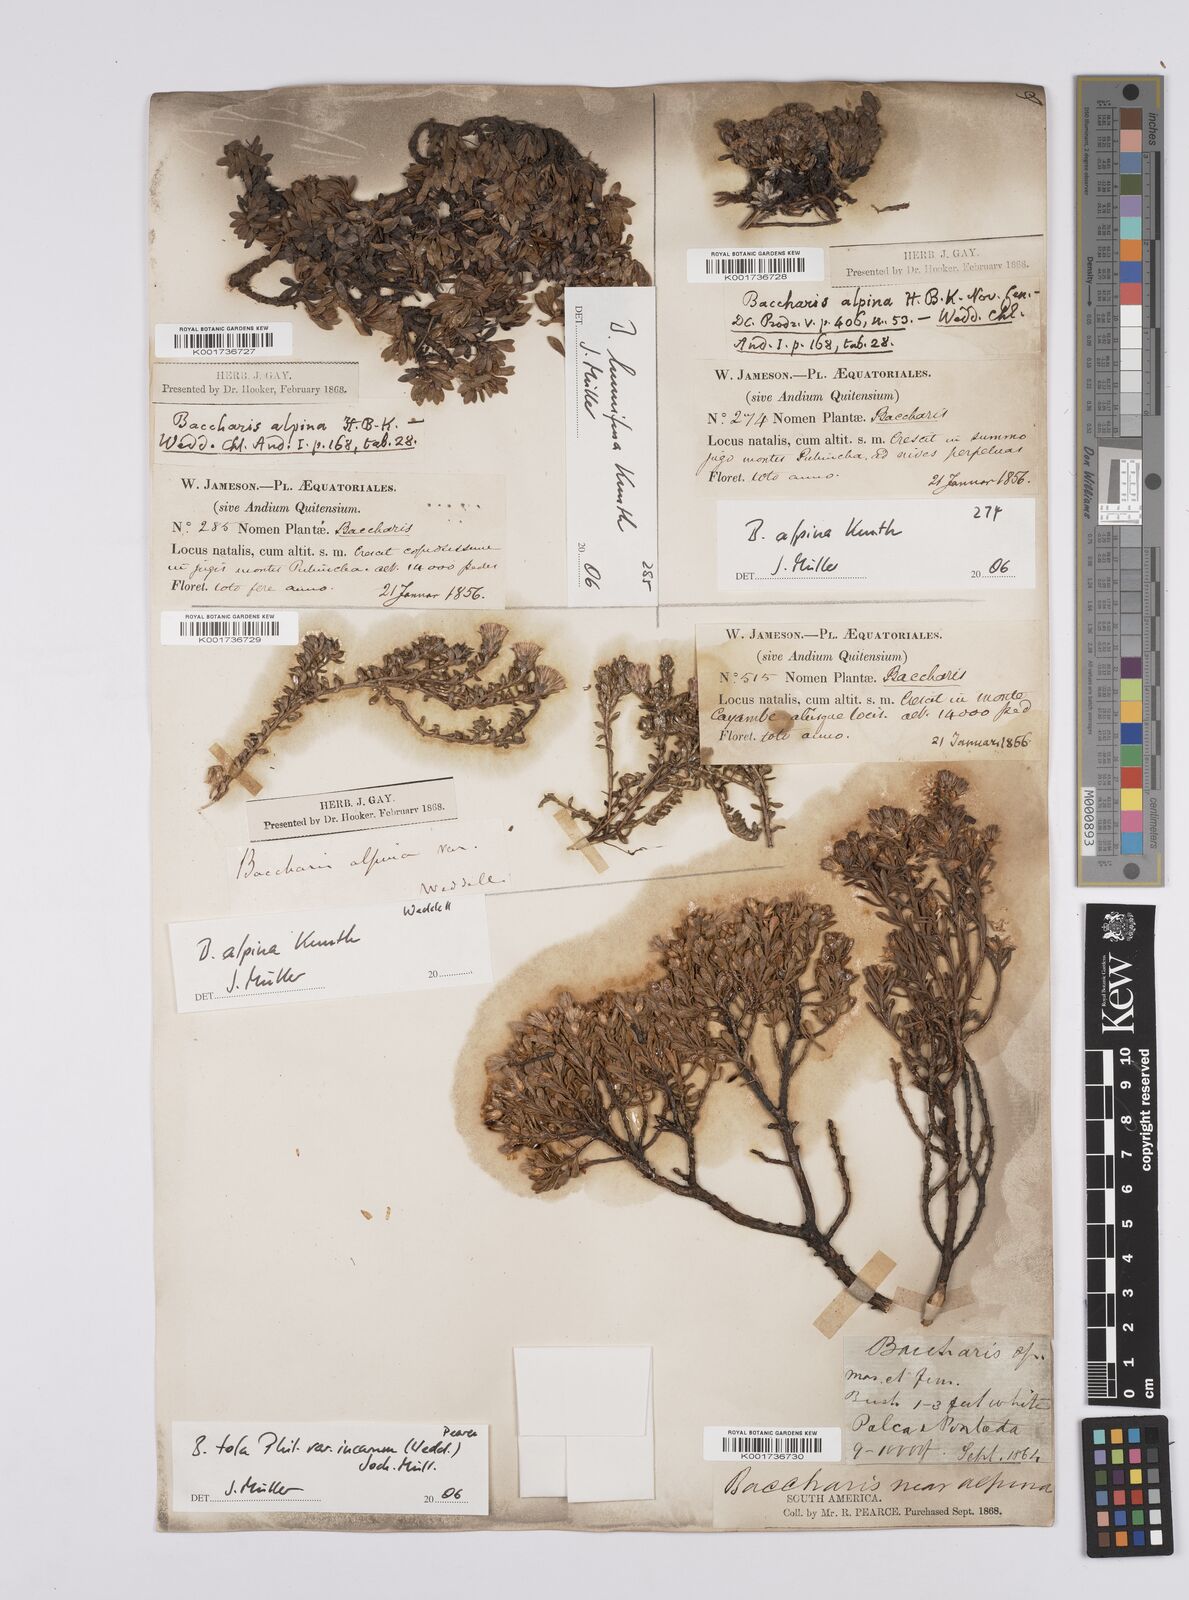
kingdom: Plantae
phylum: Tracheophyta
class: Magnoliopsida
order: Asterales
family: Asteraceae
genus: Baccharis
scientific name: Baccharis alpina
